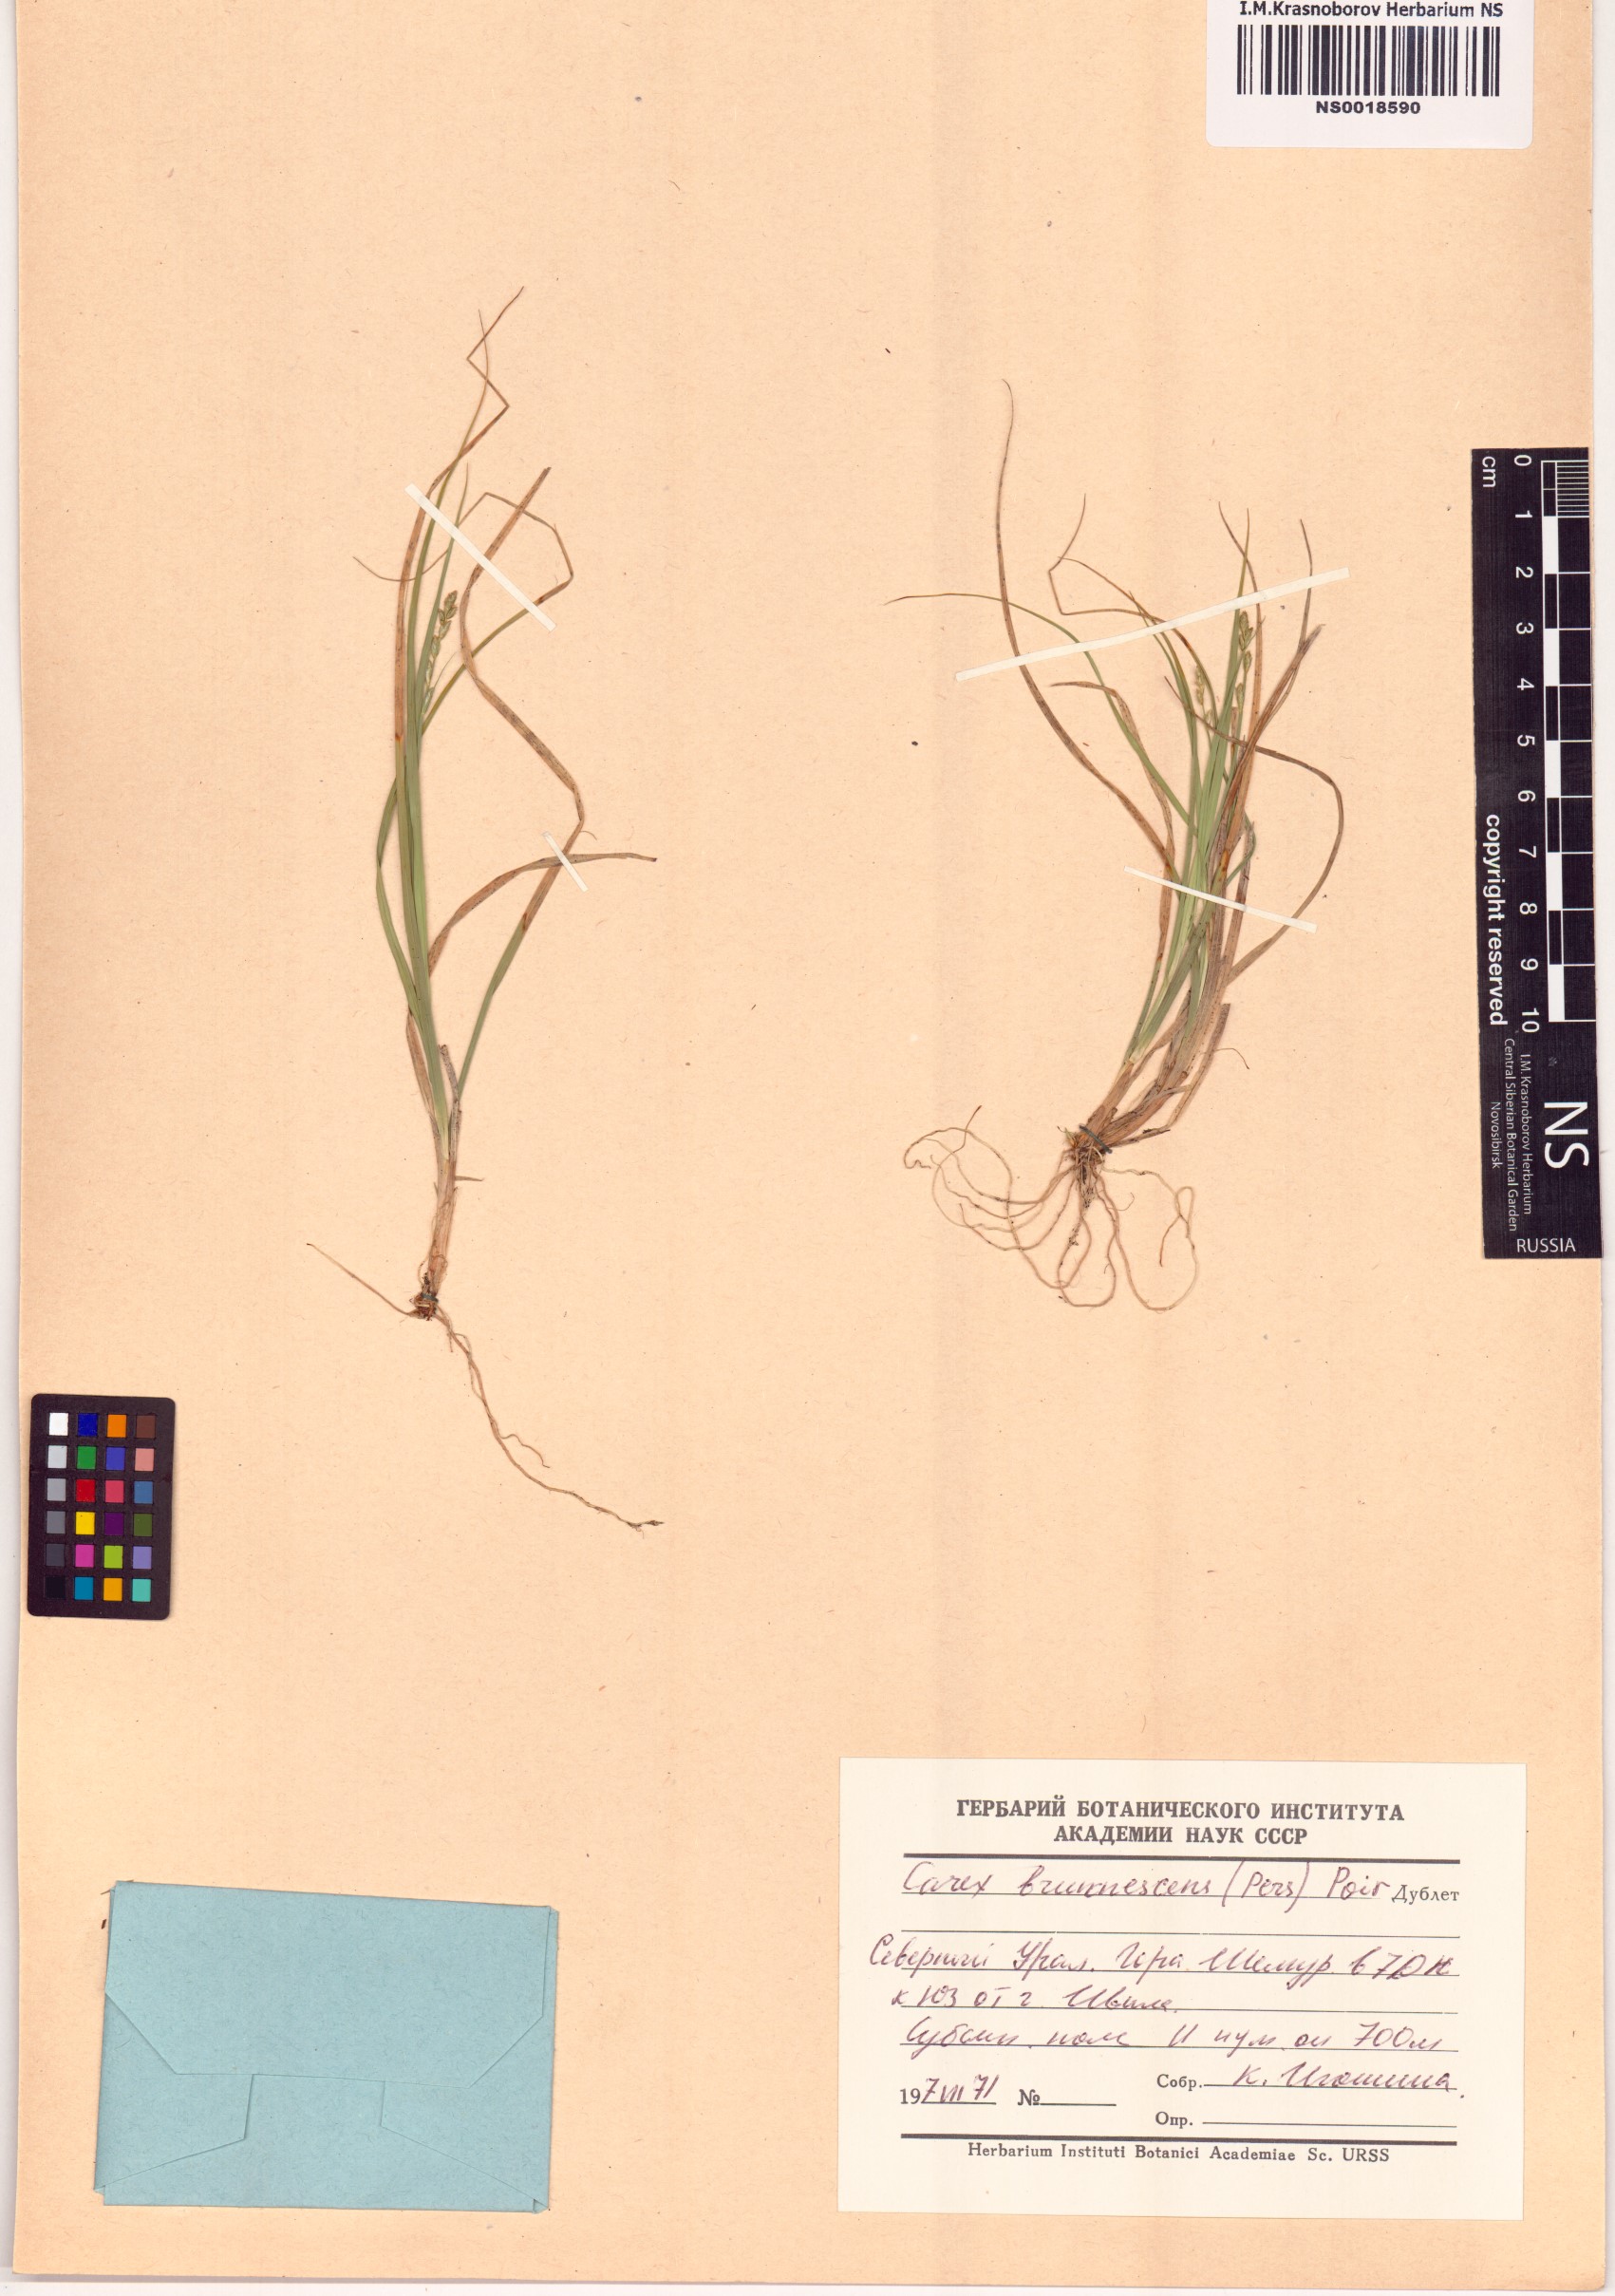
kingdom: Plantae
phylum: Tracheophyta
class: Liliopsida
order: Poales
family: Cyperaceae
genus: Carex
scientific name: Carex brunnescens
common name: Brown sedge
